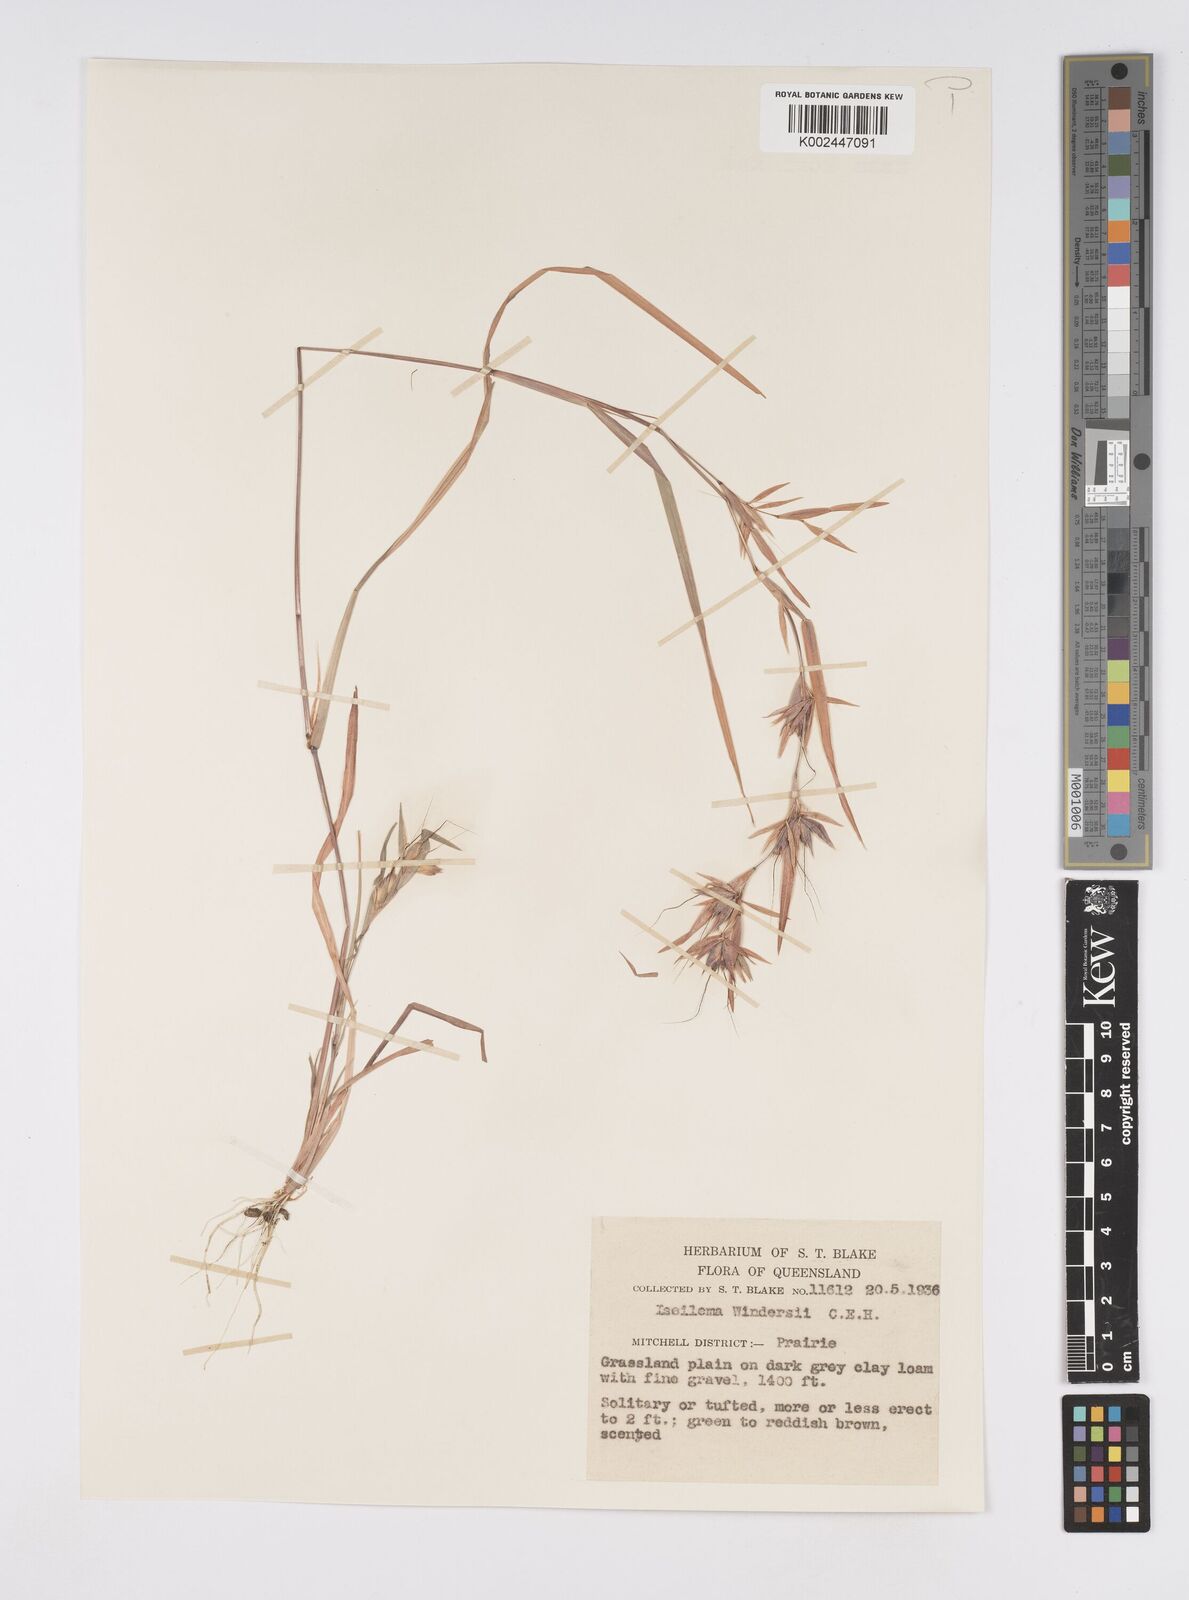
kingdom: Plantae
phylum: Tracheophyta
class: Liliopsida
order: Poales
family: Poaceae
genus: Iseilema
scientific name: Iseilema windersii
